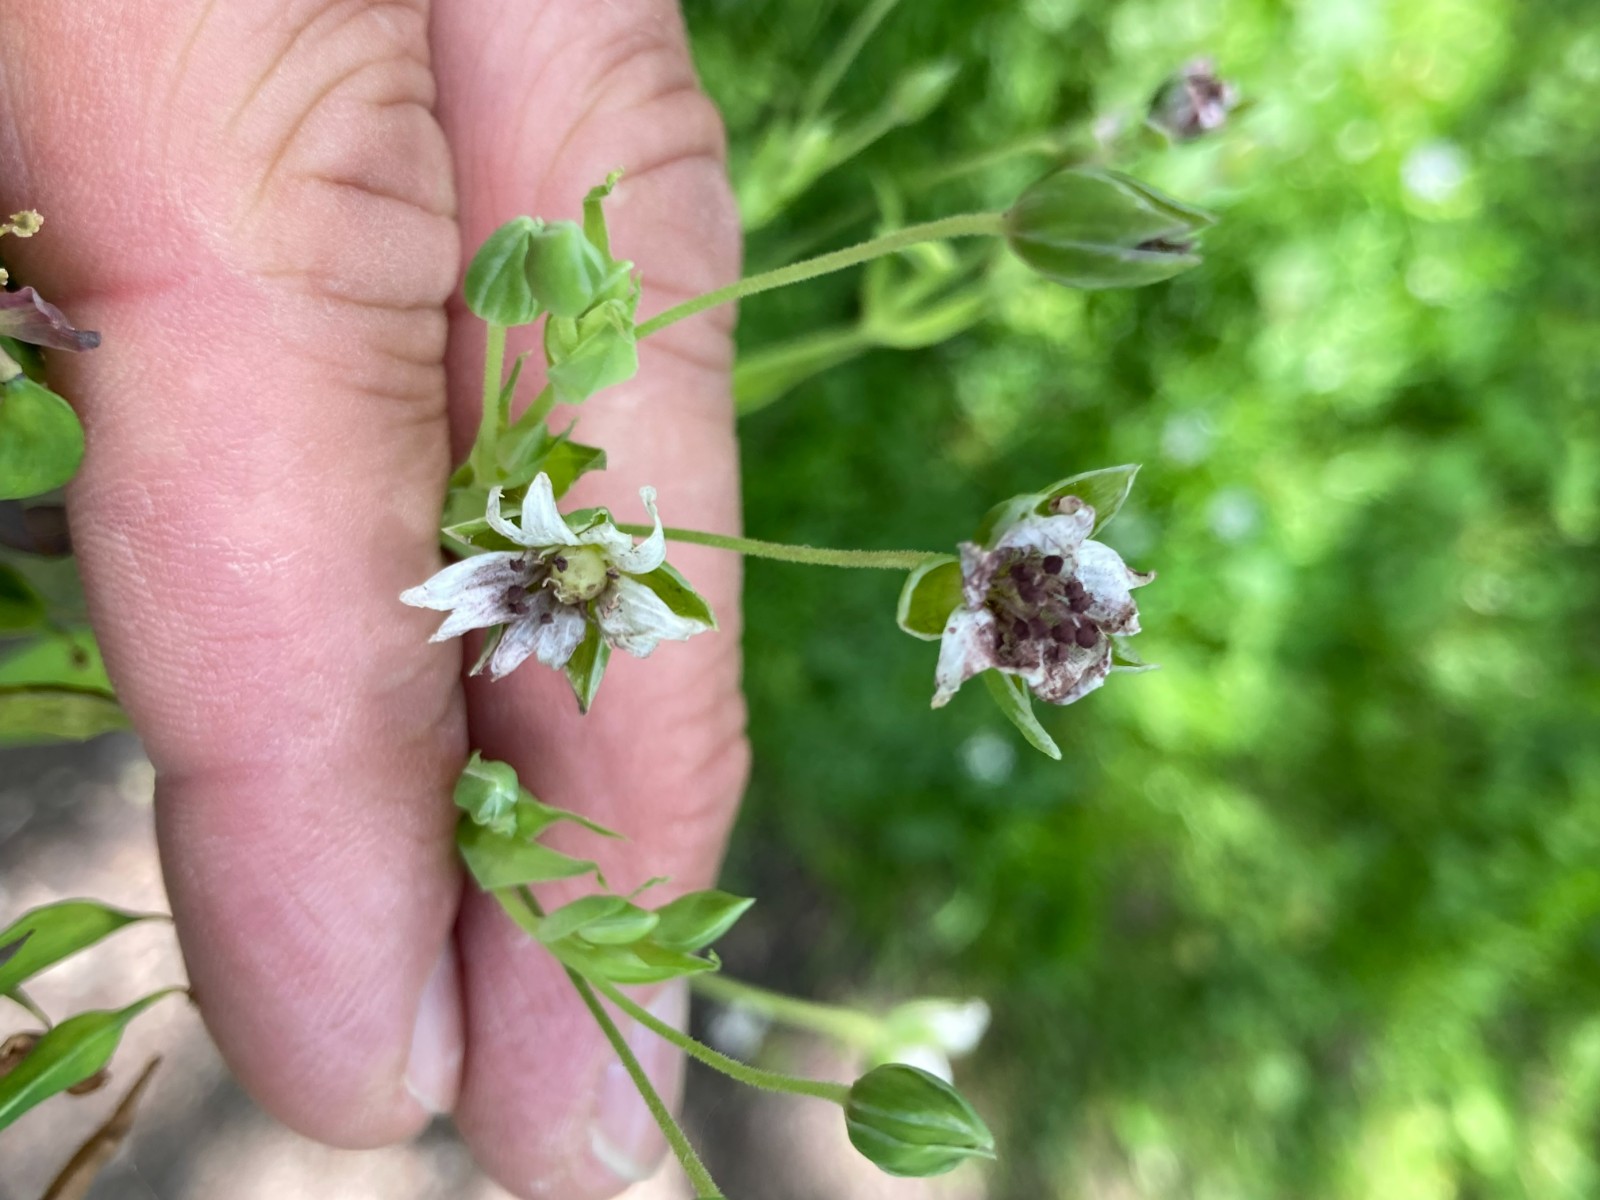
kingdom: Fungi
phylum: Basidiomycota
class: Microbotryomycetes
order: Microbotryales
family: Microbotryaceae
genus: Microbotryum
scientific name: Microbotryum stellariae
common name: fladstjerne-støvbladrust
